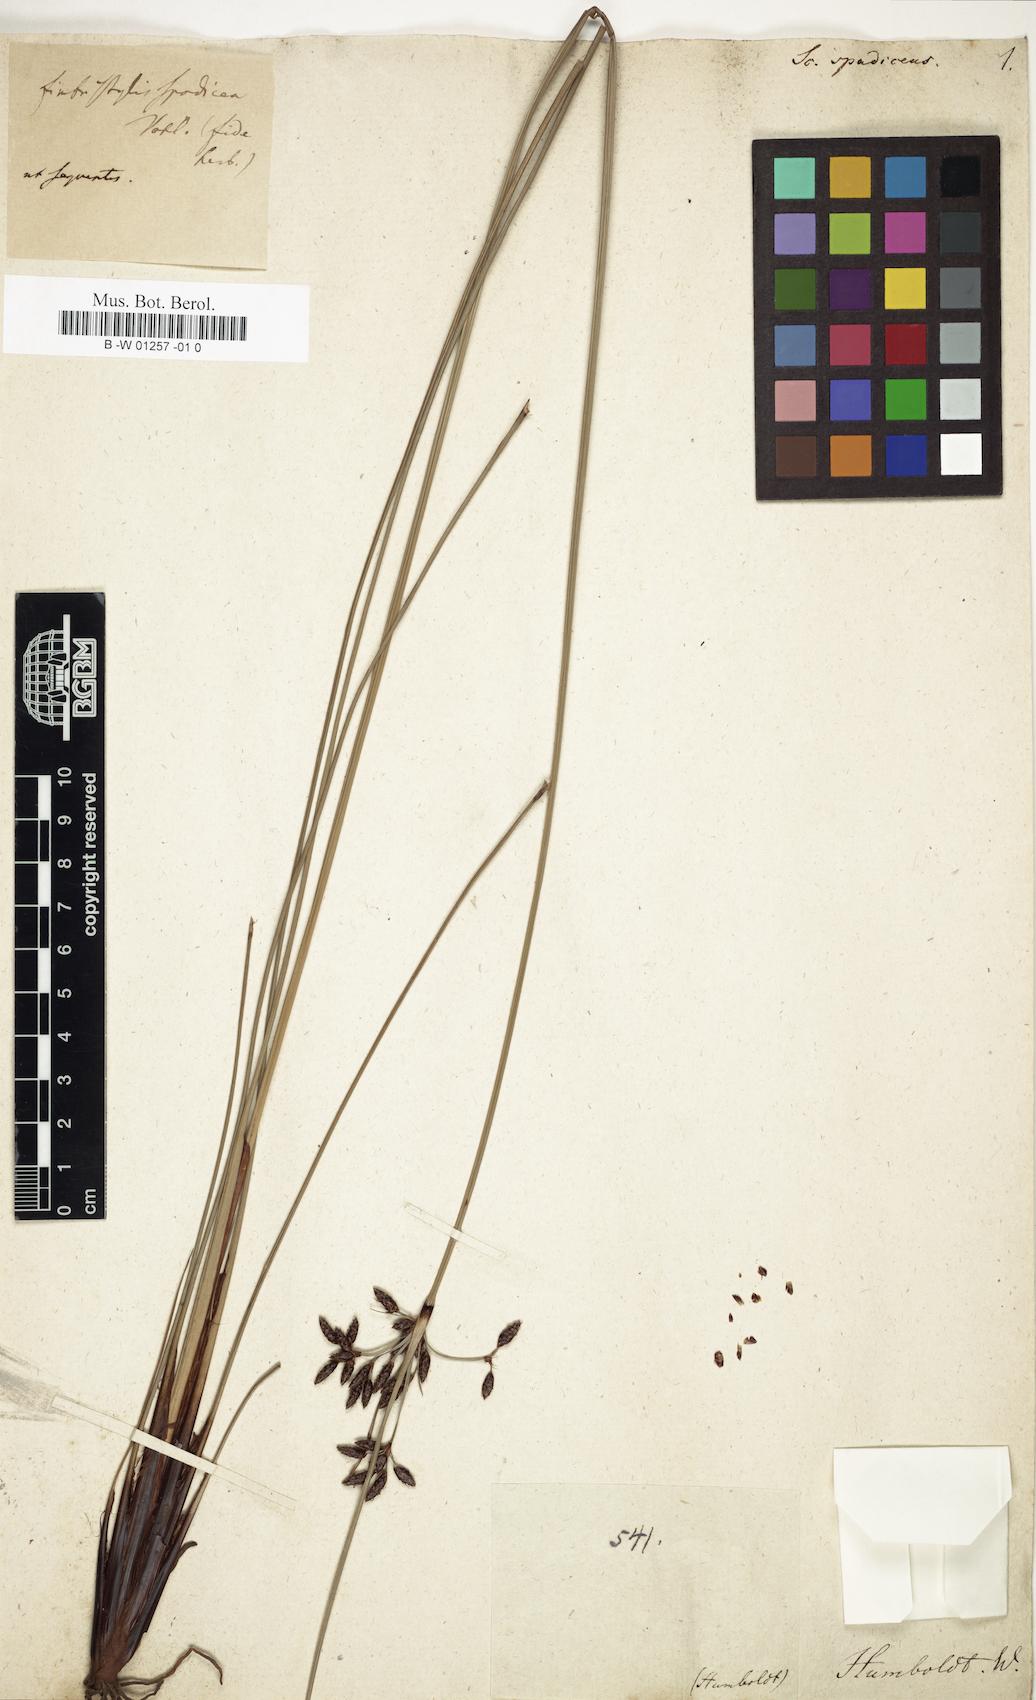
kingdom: Plantae
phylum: Tracheophyta
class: Liliopsida
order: Poales
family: Cyperaceae
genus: Fimbristylis
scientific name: Fimbristylis spadicea
